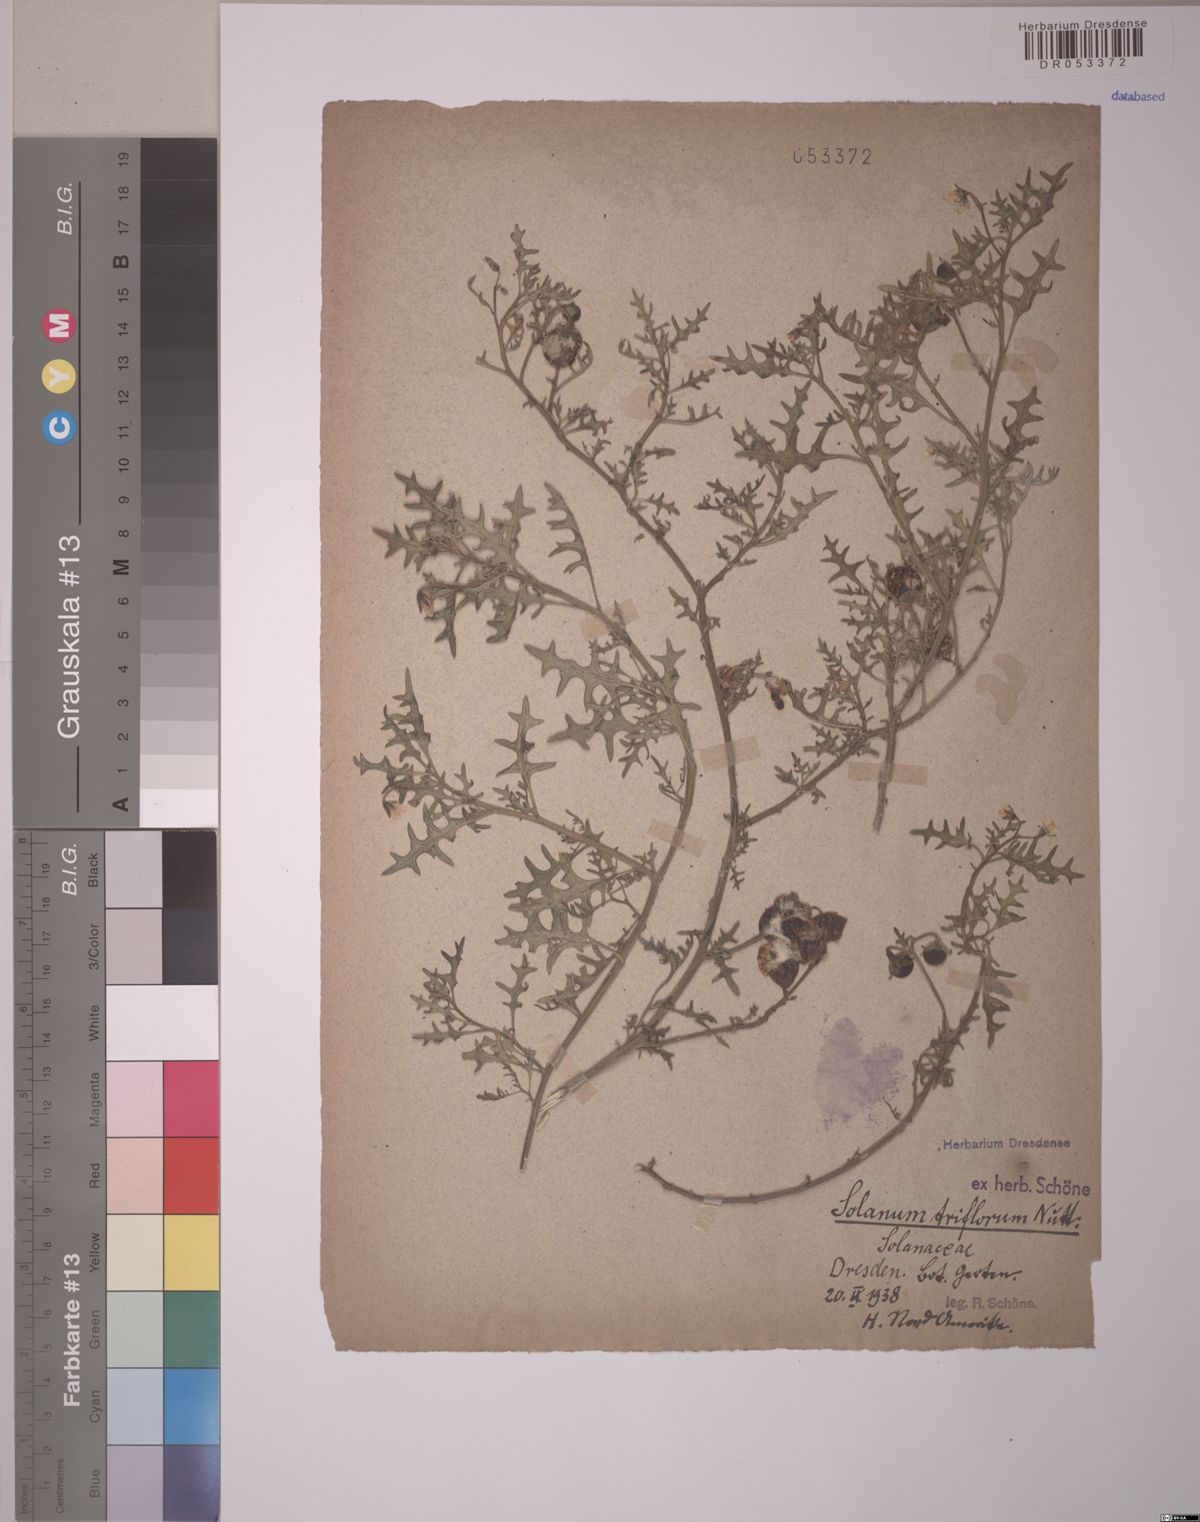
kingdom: Plantae
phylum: Tracheophyta
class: Magnoliopsida
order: Solanales
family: Solanaceae
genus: Solanum
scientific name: Solanum triflorum
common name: Small nightshade
